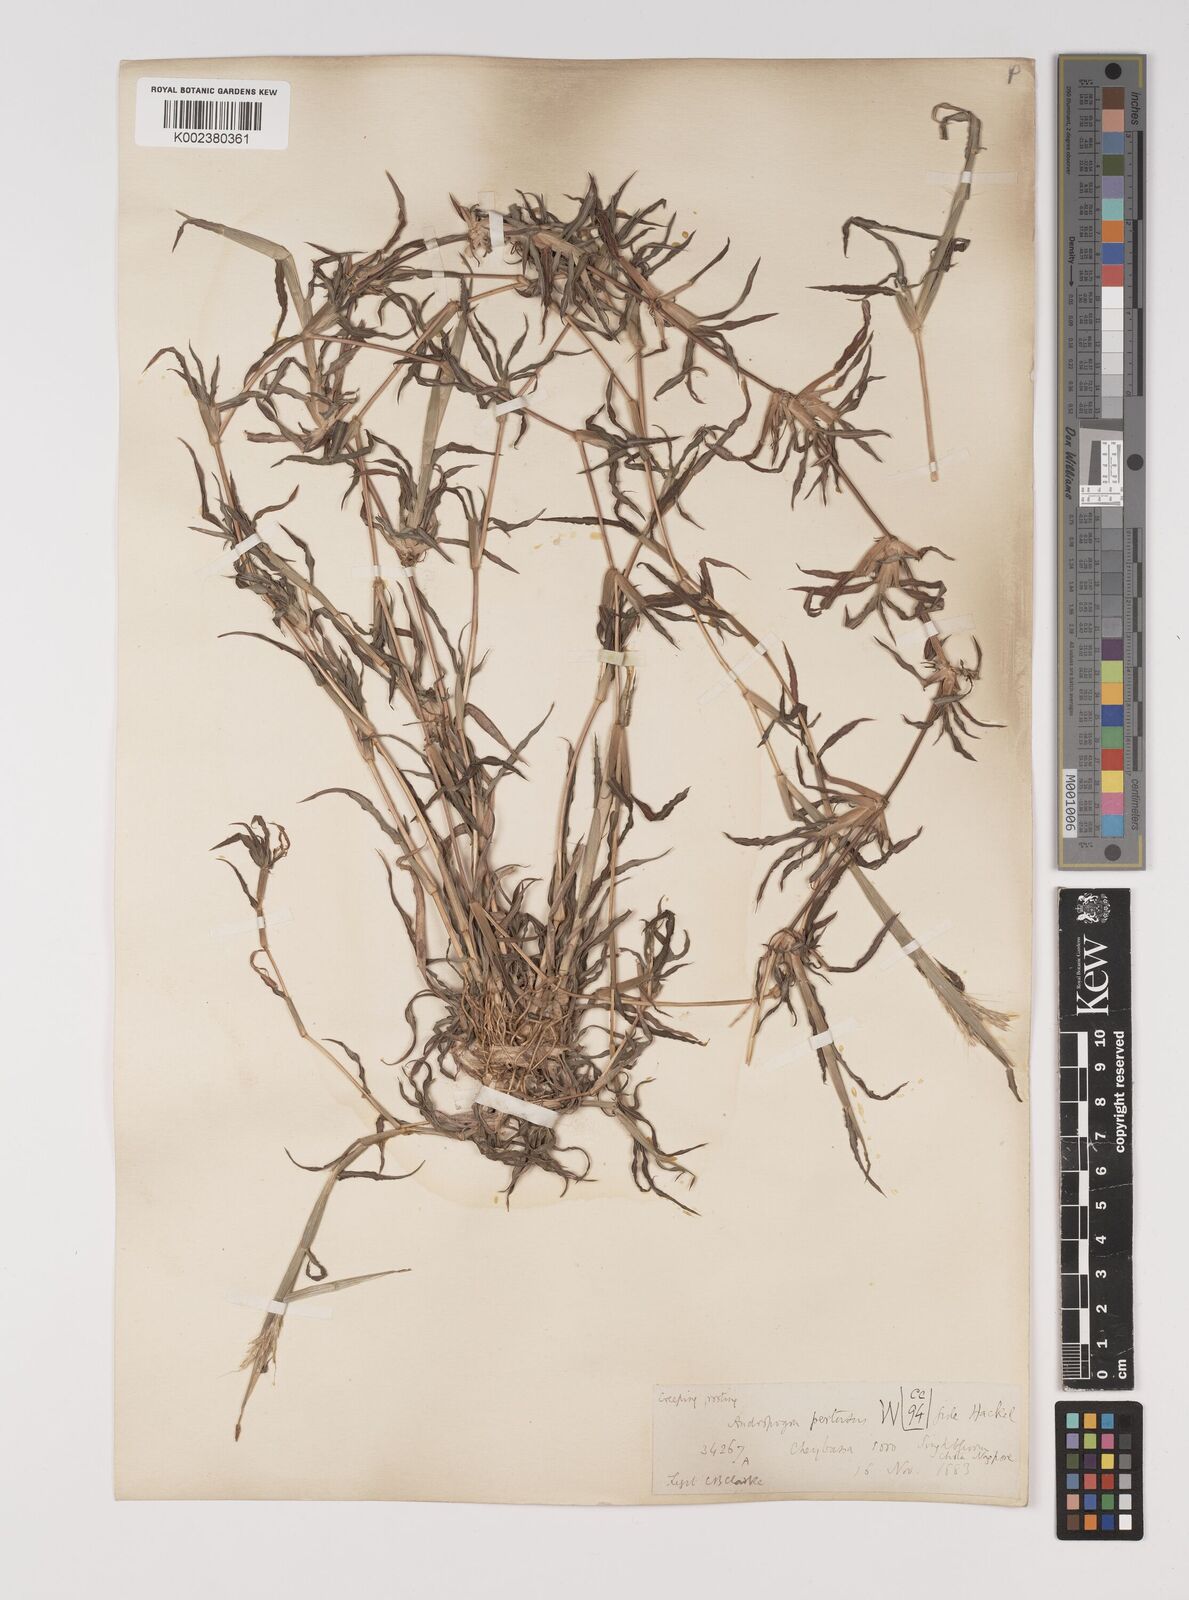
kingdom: Plantae
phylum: Tracheophyta
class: Liliopsida
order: Poales
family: Poaceae
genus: Bothriochloa
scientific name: Bothriochloa pertusa
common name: Pitted beardgrass
